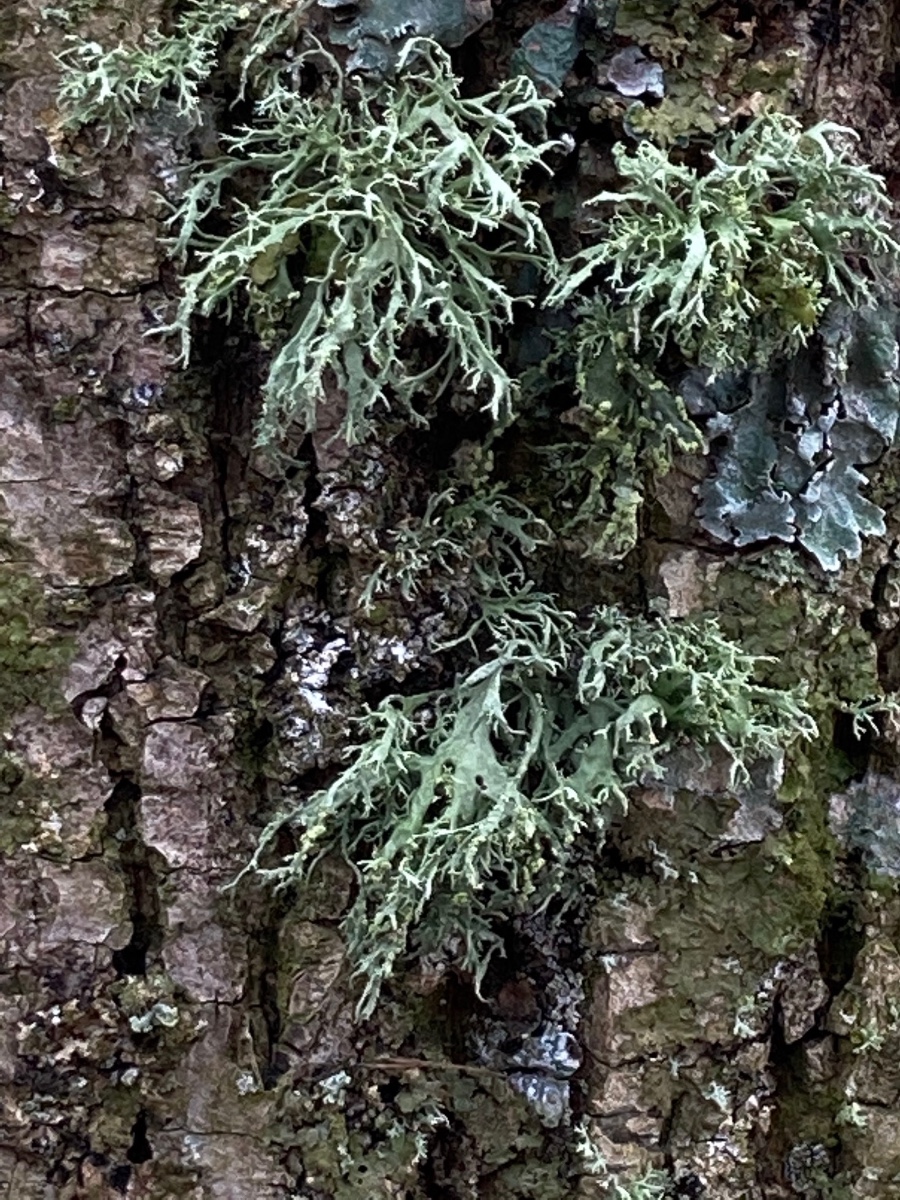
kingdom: Fungi
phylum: Ascomycota
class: Lecanoromycetes
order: Lecanorales
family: Ramalinaceae
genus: Ramalina
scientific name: Ramalina farinacea
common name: melet grenlav
